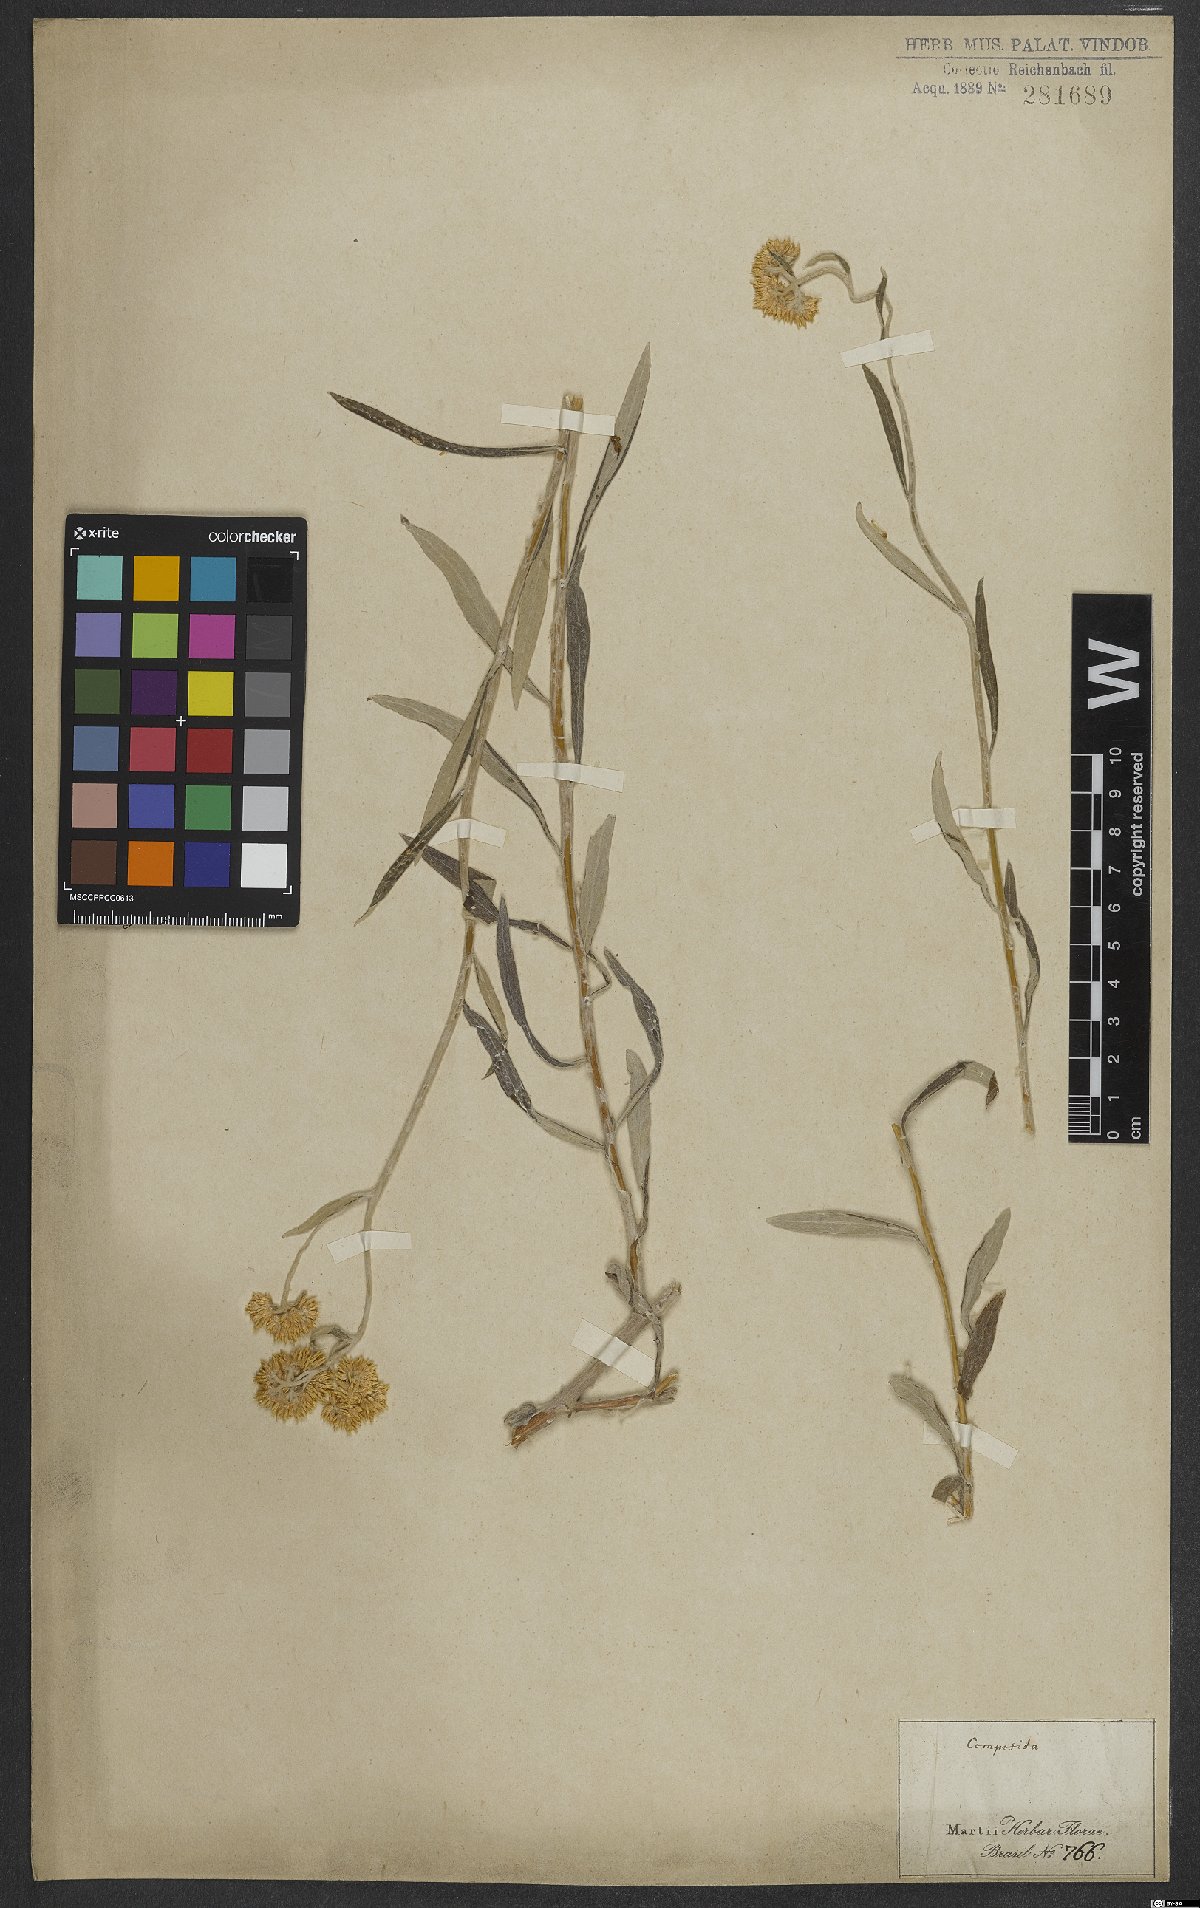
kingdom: Plantae
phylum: Tracheophyta
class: Magnoliopsida
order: Asterales
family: Asteraceae
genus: Gnaphalium
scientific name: Gnaphalium
